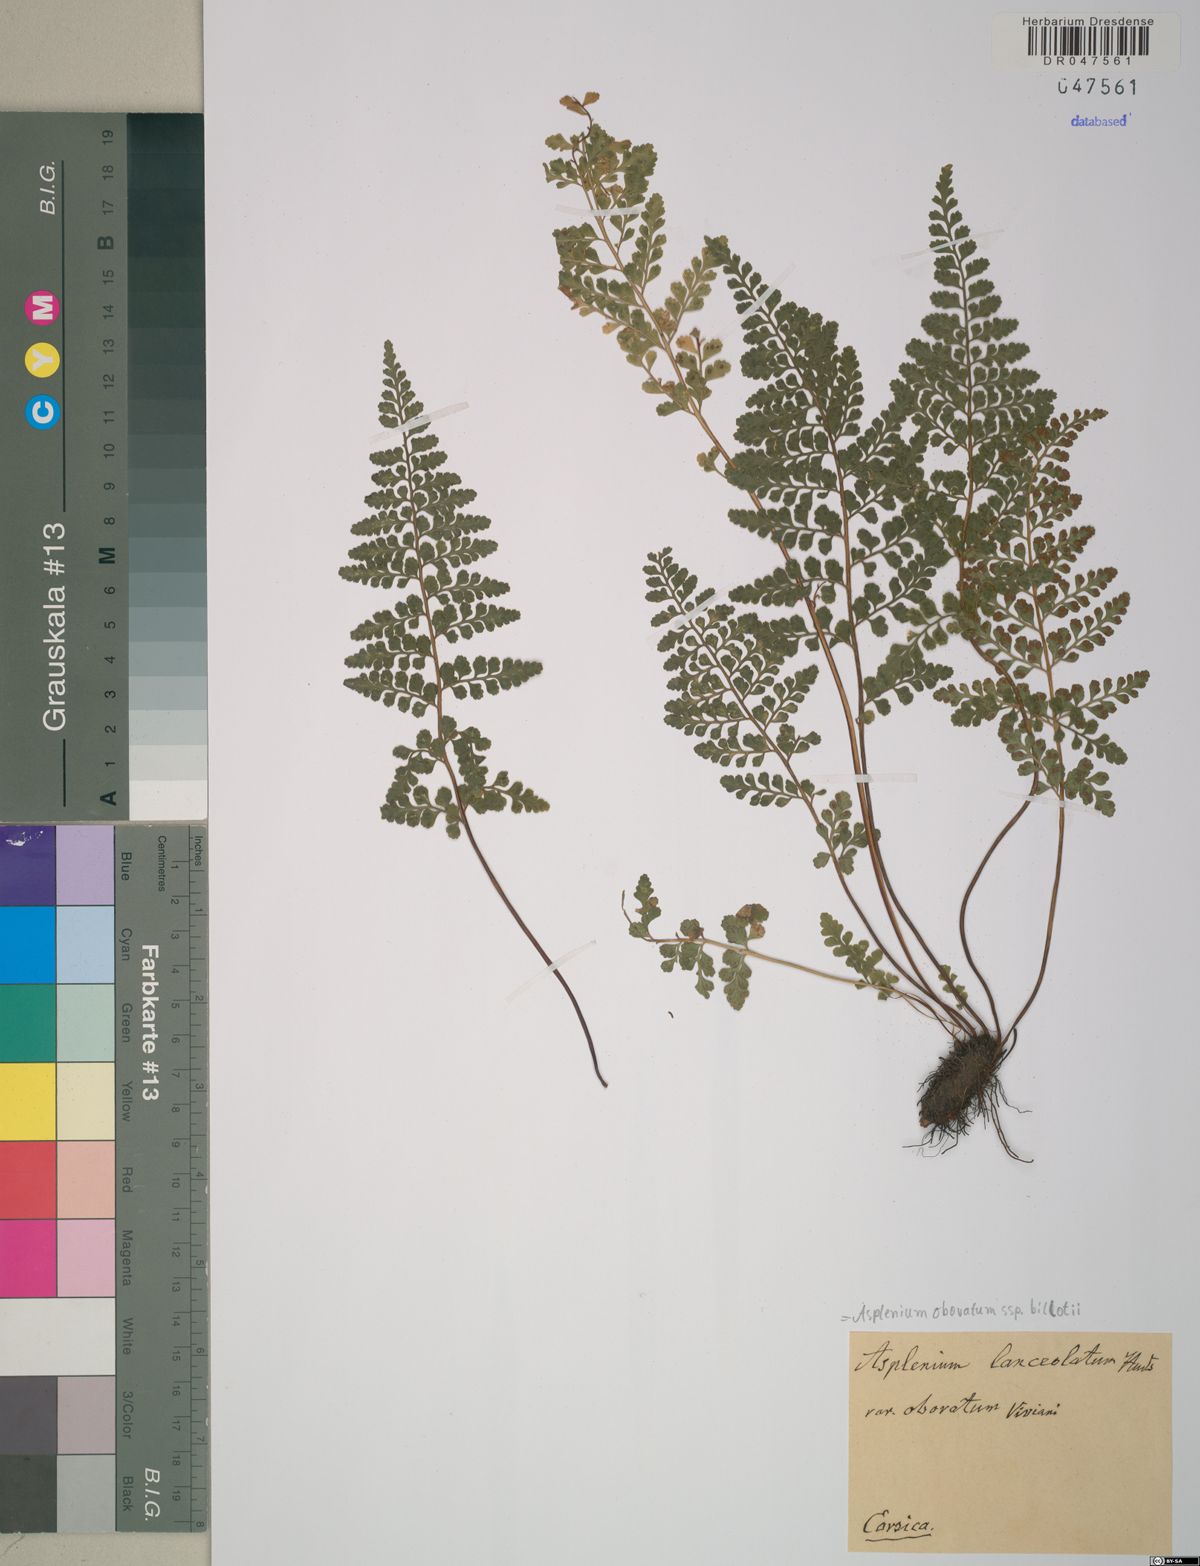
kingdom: Plantae
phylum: Tracheophyta
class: Polypodiopsida
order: Polypodiales
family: Aspleniaceae
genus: Asplenium
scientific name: Asplenium obovatum
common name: Lanceolate spleenwort
